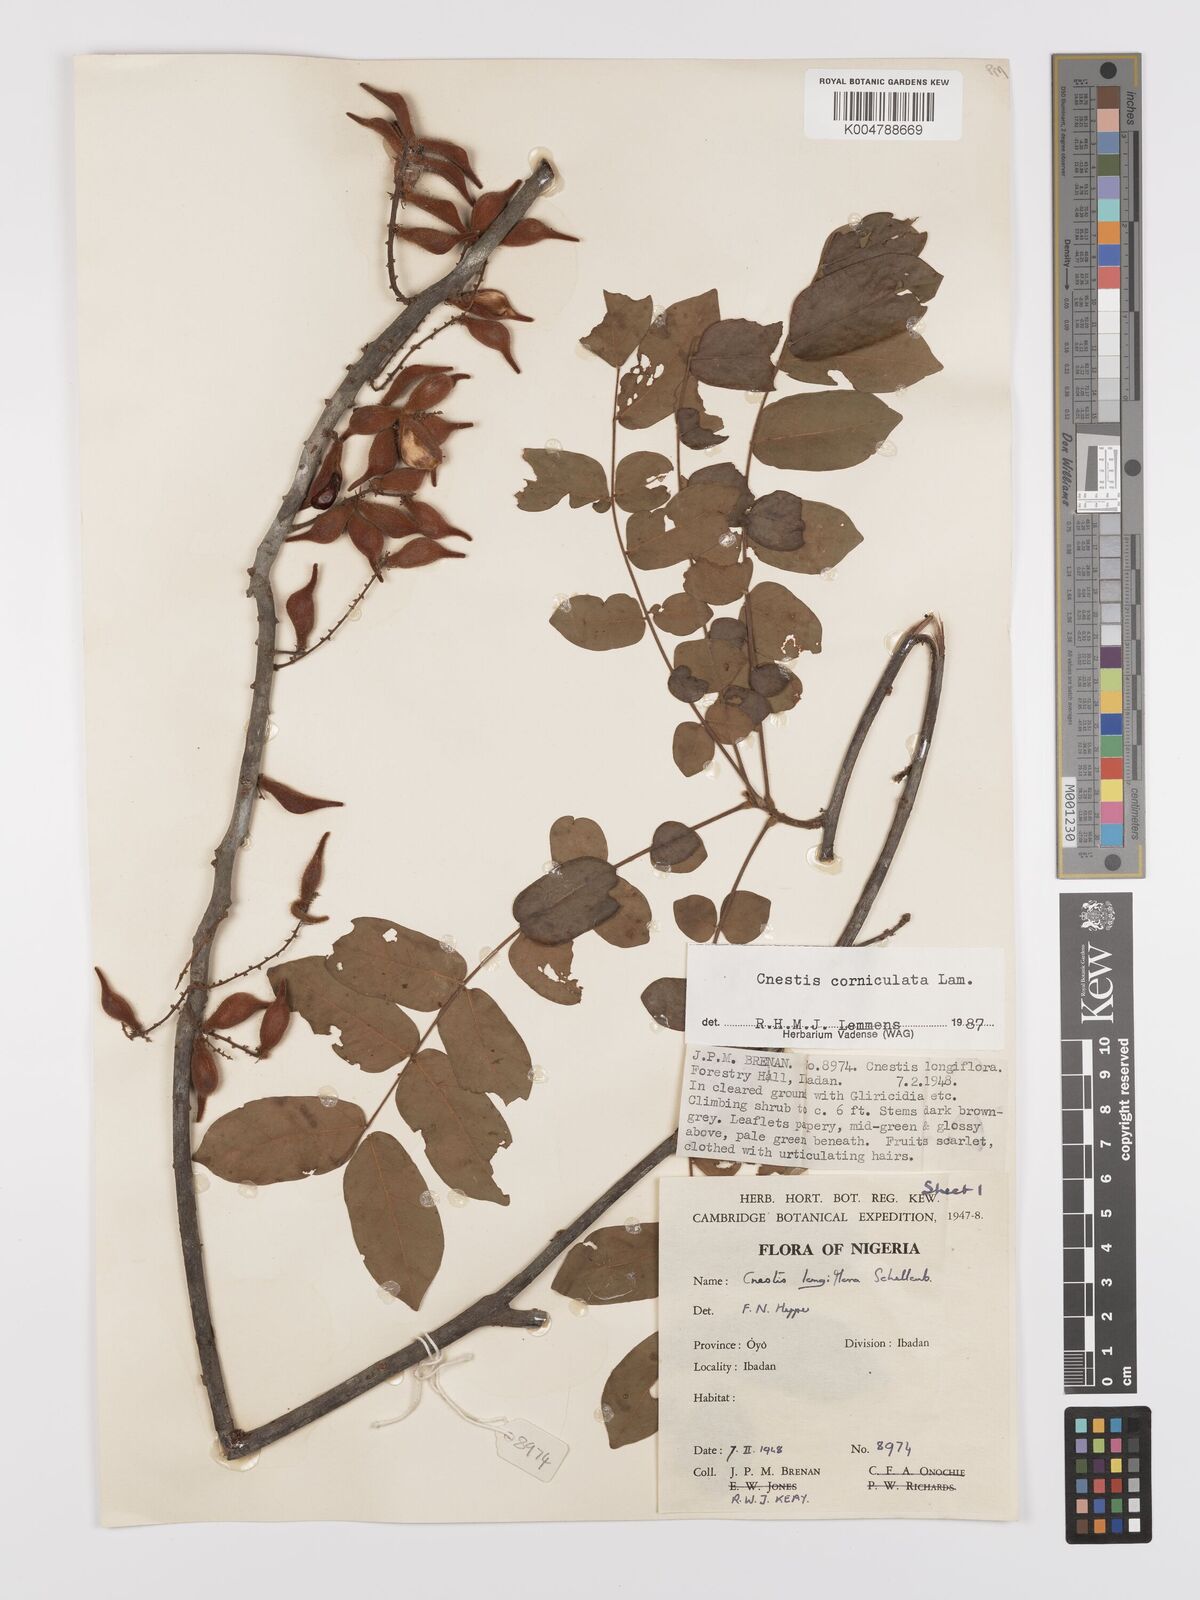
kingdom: Plantae
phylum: Tracheophyta
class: Magnoliopsida
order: Oxalidales
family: Connaraceae
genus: Cnestis
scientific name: Cnestis corniculata
